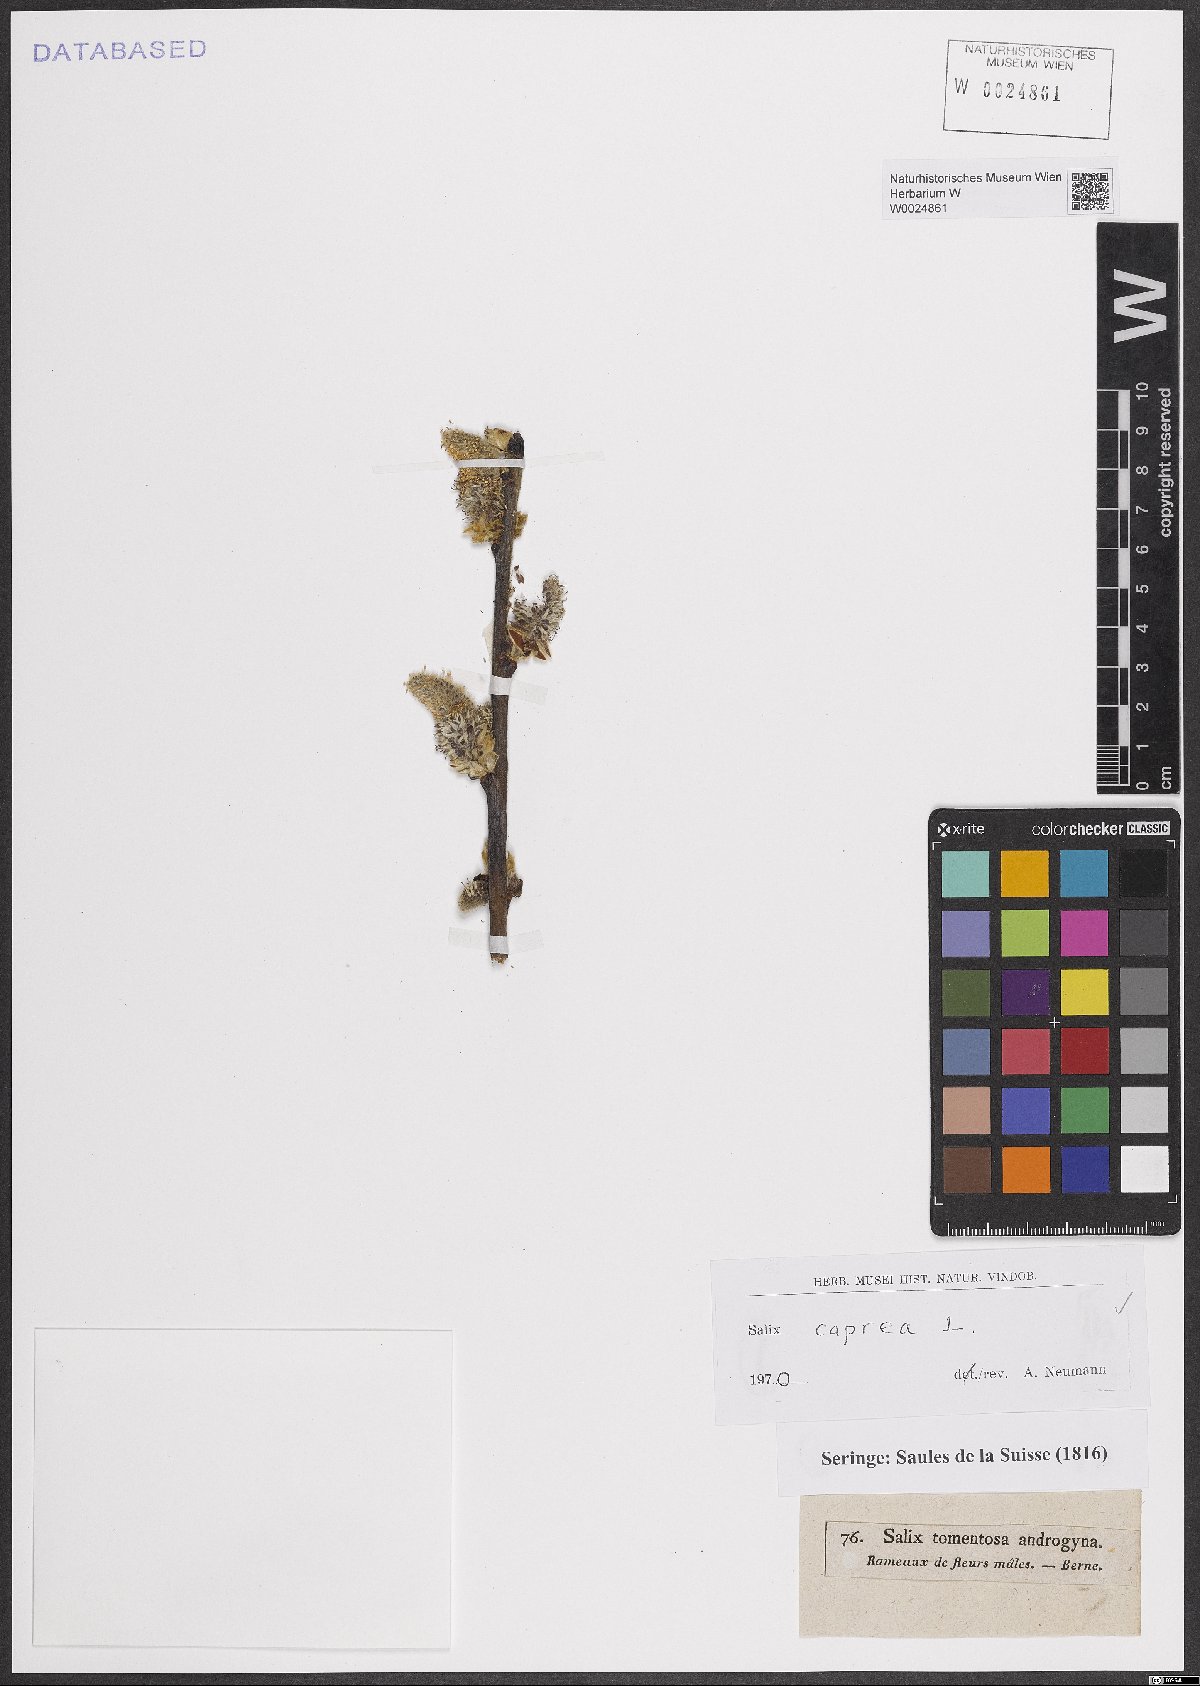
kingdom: Plantae
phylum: Tracheophyta
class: Magnoliopsida
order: Malpighiales
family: Salicaceae
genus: Salix
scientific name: Salix caprea
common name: Goat willow
